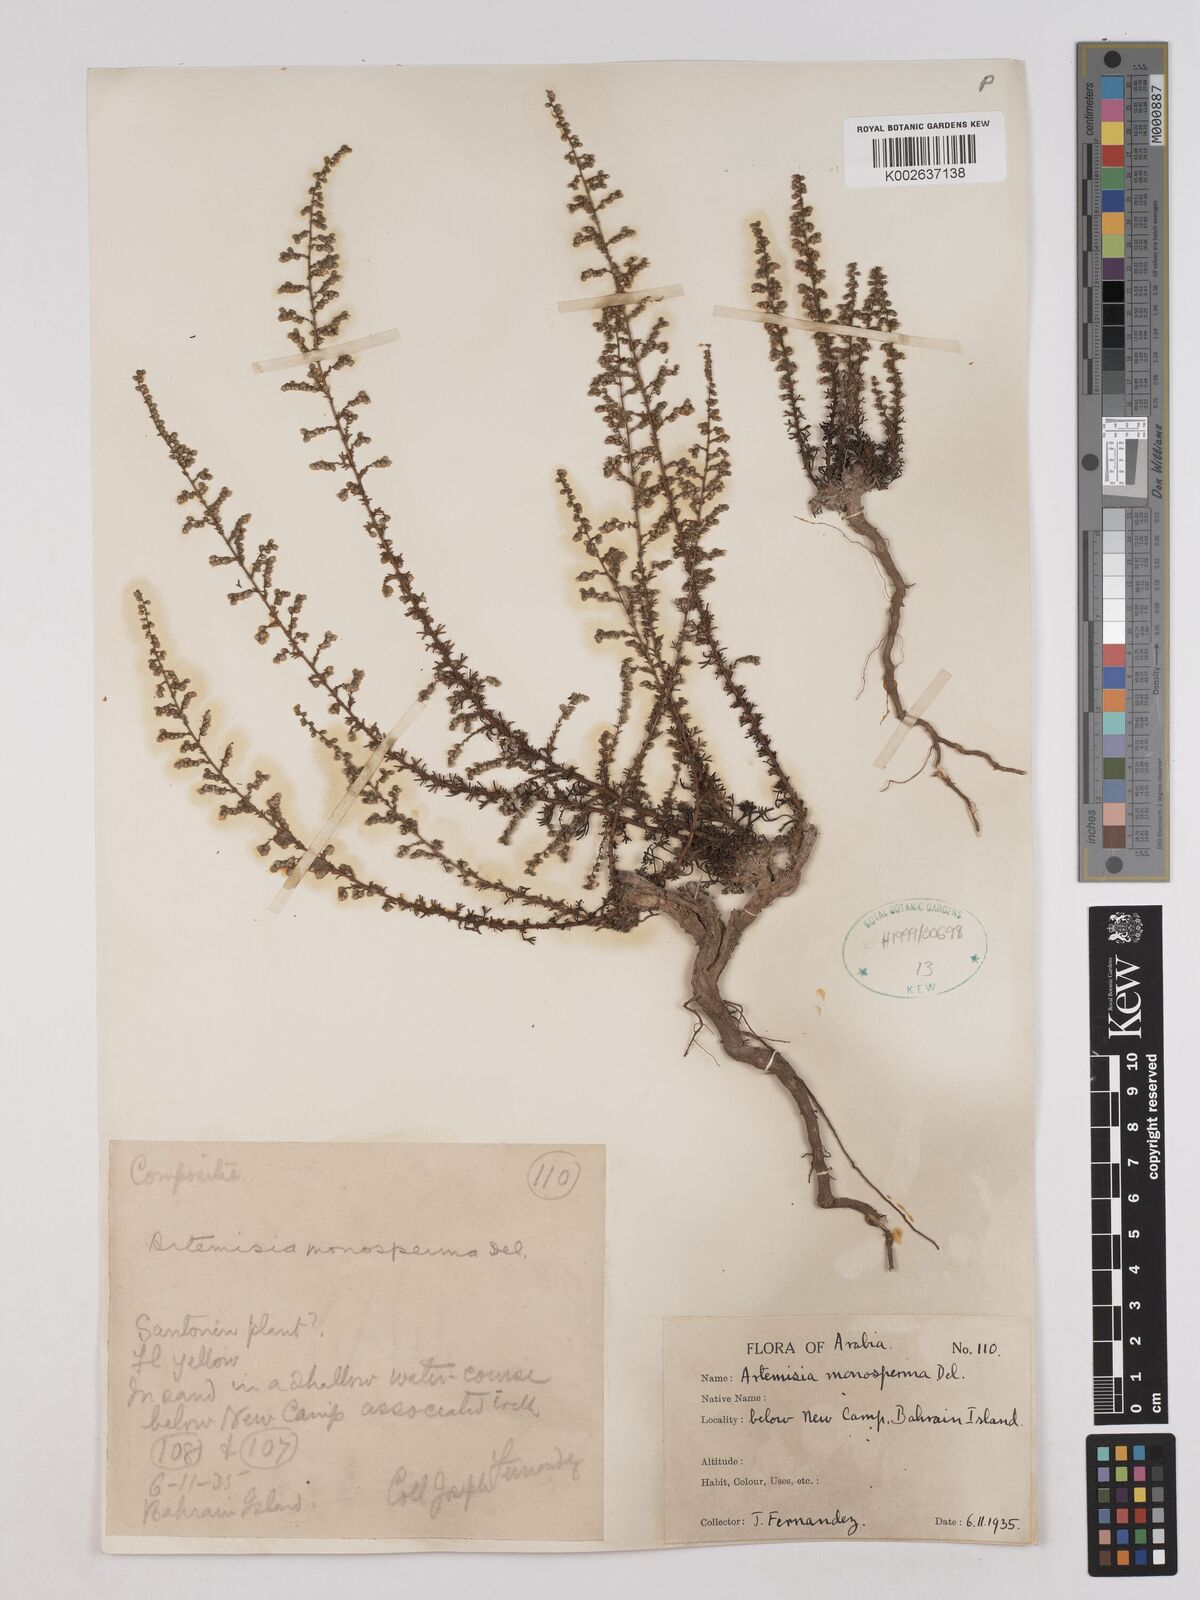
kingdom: Plantae
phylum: Tracheophyta
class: Magnoliopsida
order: Asterales
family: Asteraceae
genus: Artemisia
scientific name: Artemisia monosperma
